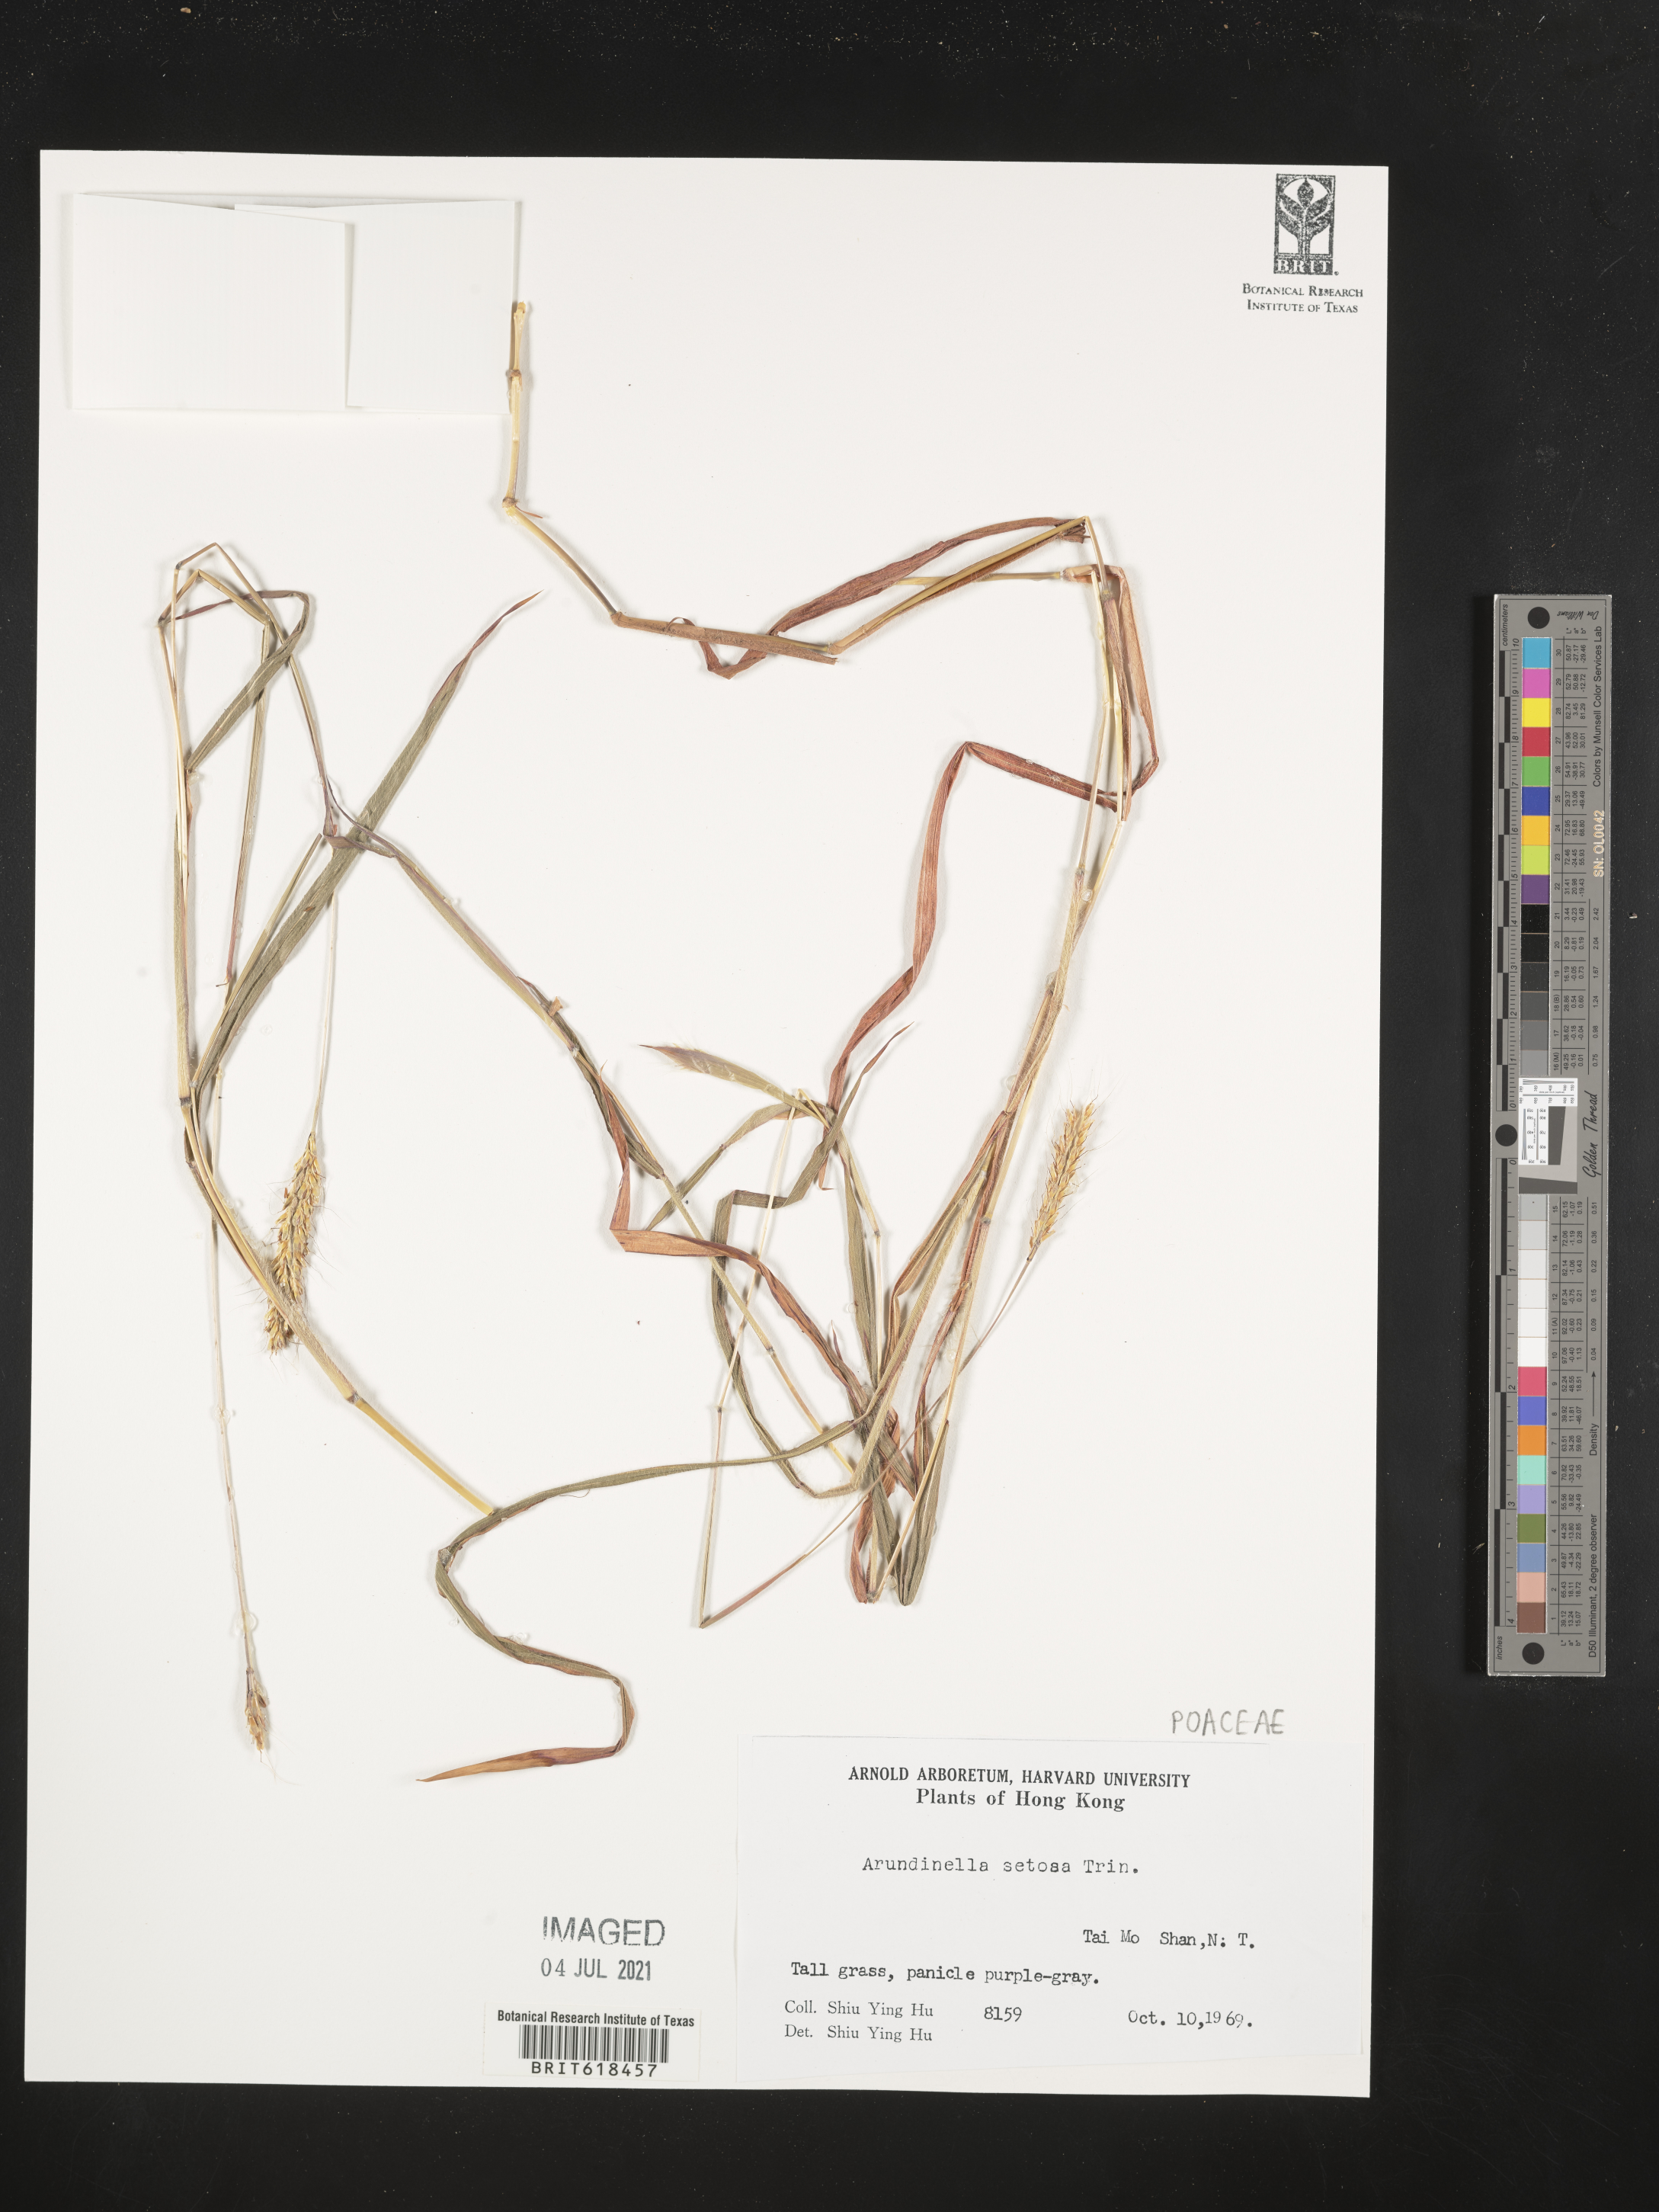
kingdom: Plantae
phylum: Tracheophyta
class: Liliopsida
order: Poales
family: Poaceae
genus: Arundinella
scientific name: Arundinella setosa
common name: Reed grass
